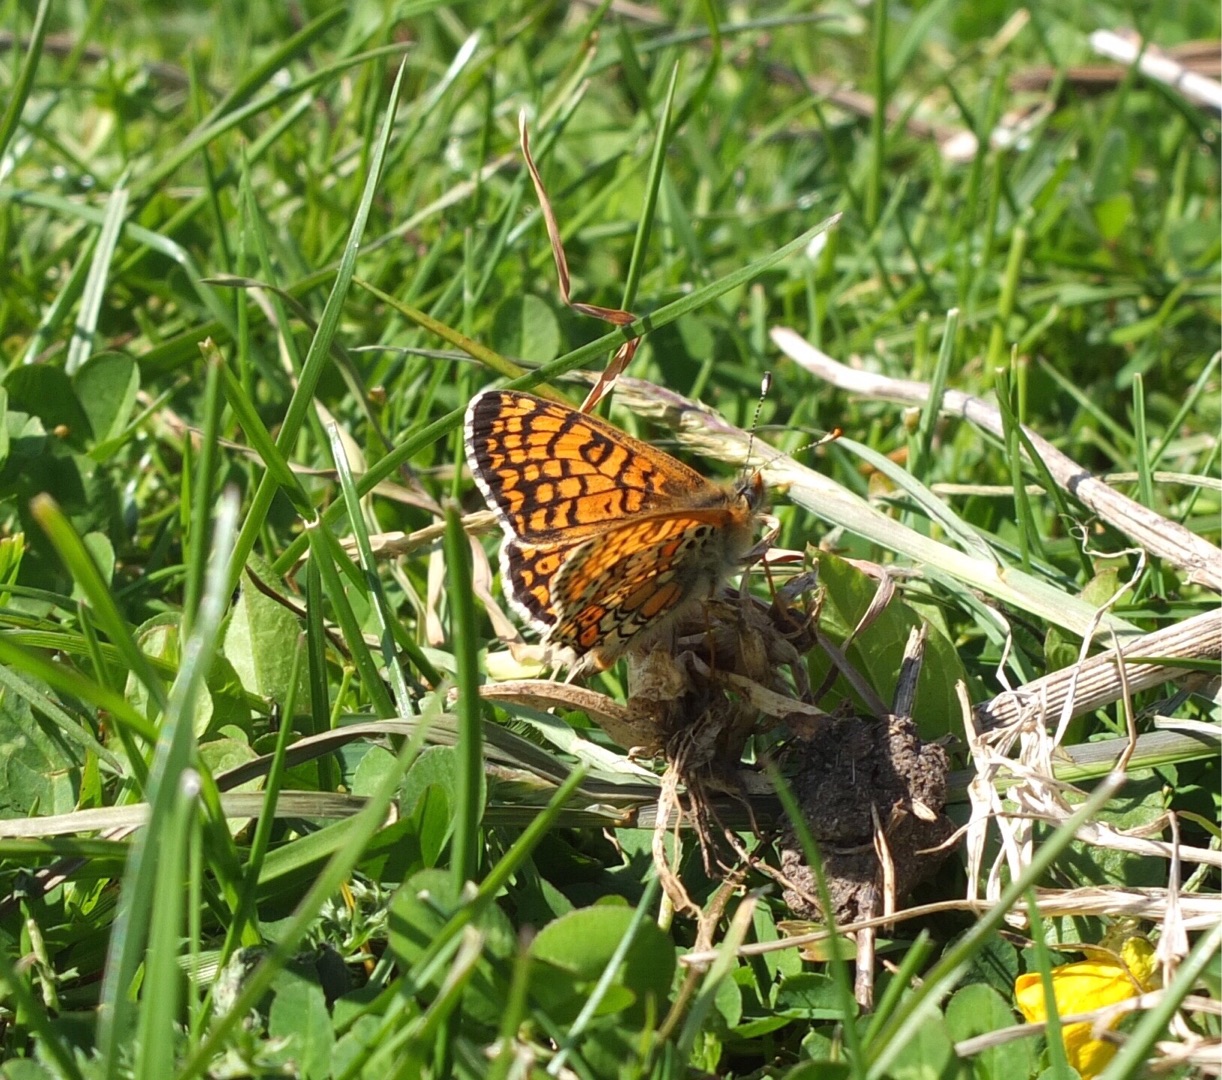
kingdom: Animalia
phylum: Arthropoda
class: Insecta
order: Lepidoptera
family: Nymphalidae
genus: Melitaea
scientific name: Melitaea cinxia
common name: Okkergul pletvinge
